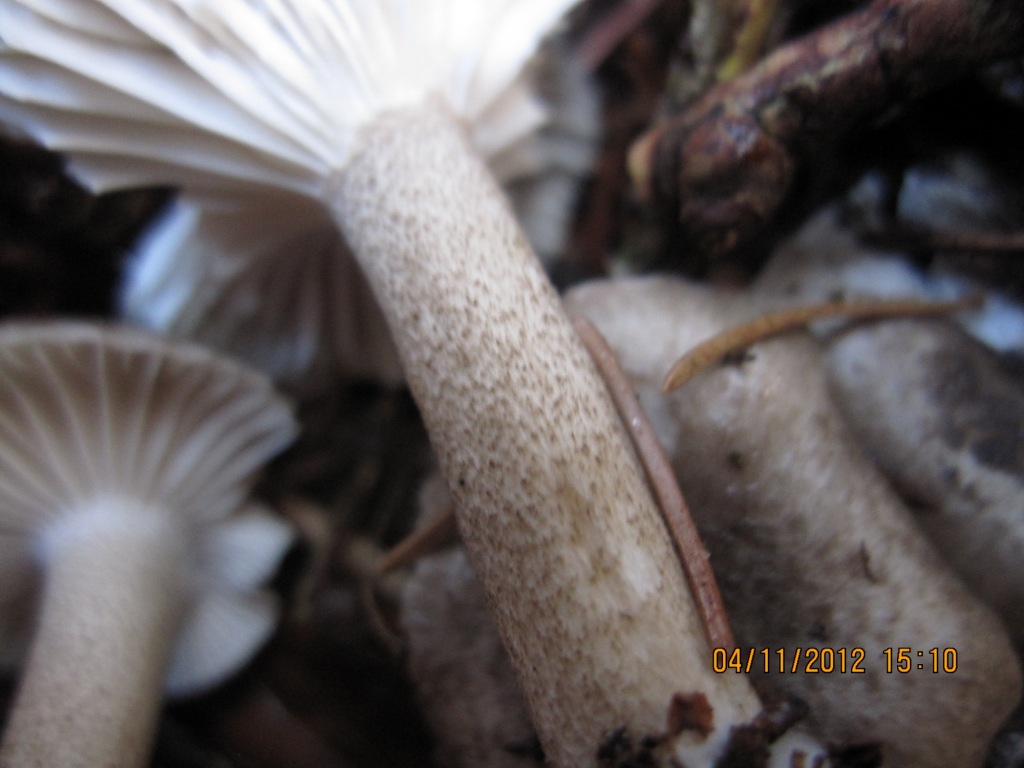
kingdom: Fungi
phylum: Basidiomycota
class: Agaricomycetes
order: Agaricales
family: Hygrophoraceae
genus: Hygrophorus
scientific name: Hygrophorus pustulatus
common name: mørkprikket sneglehat
